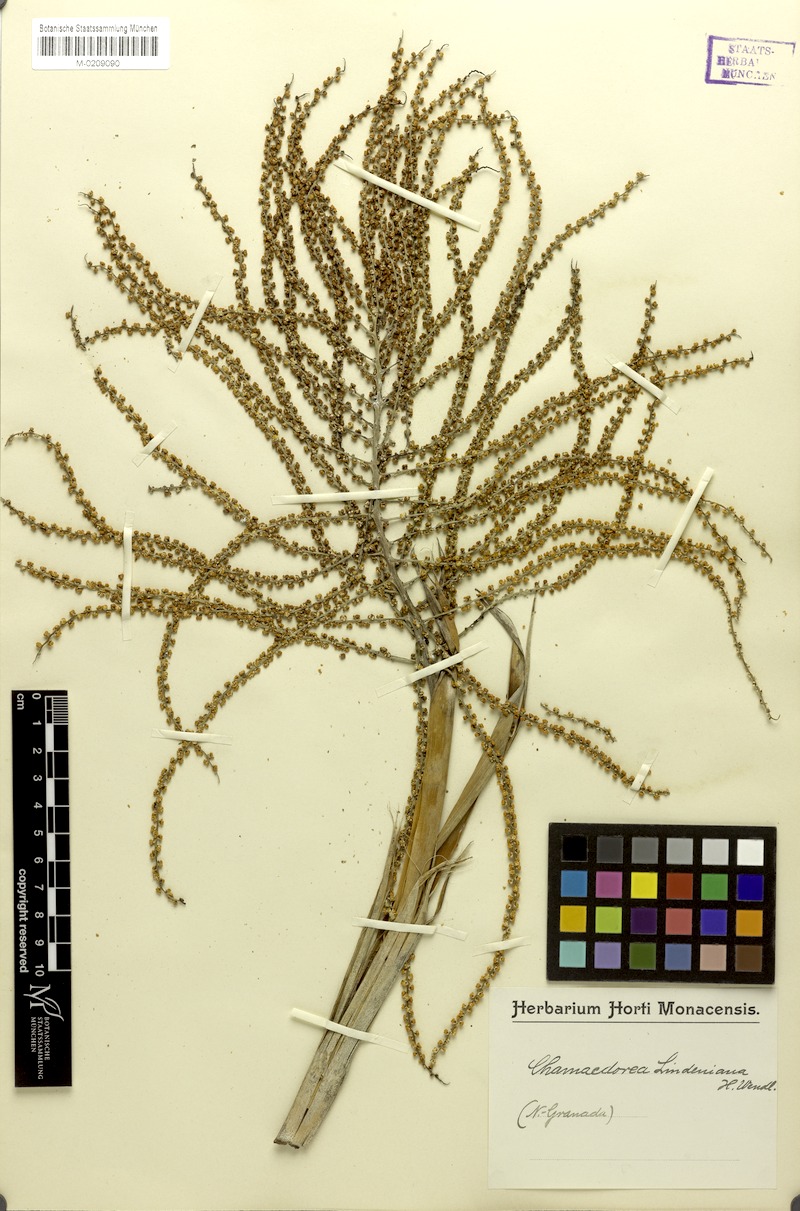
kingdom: Plantae
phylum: Tracheophyta
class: Liliopsida
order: Arecales
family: Arecaceae
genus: Chamaedorea
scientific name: Chamaedorea linearis
